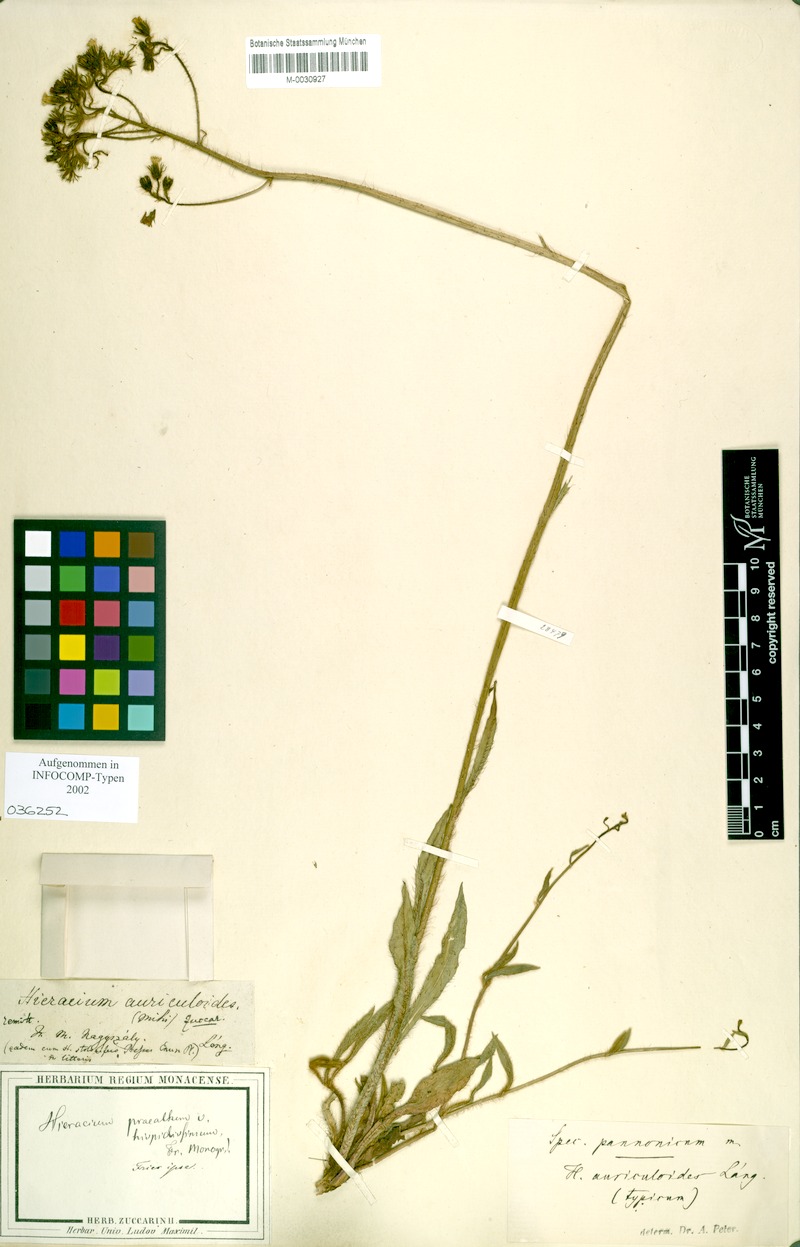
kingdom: Plantae
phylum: Tracheophyta
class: Magnoliopsida
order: Asterales
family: Asteraceae
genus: Pilosella
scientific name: Pilosella auriculoides
